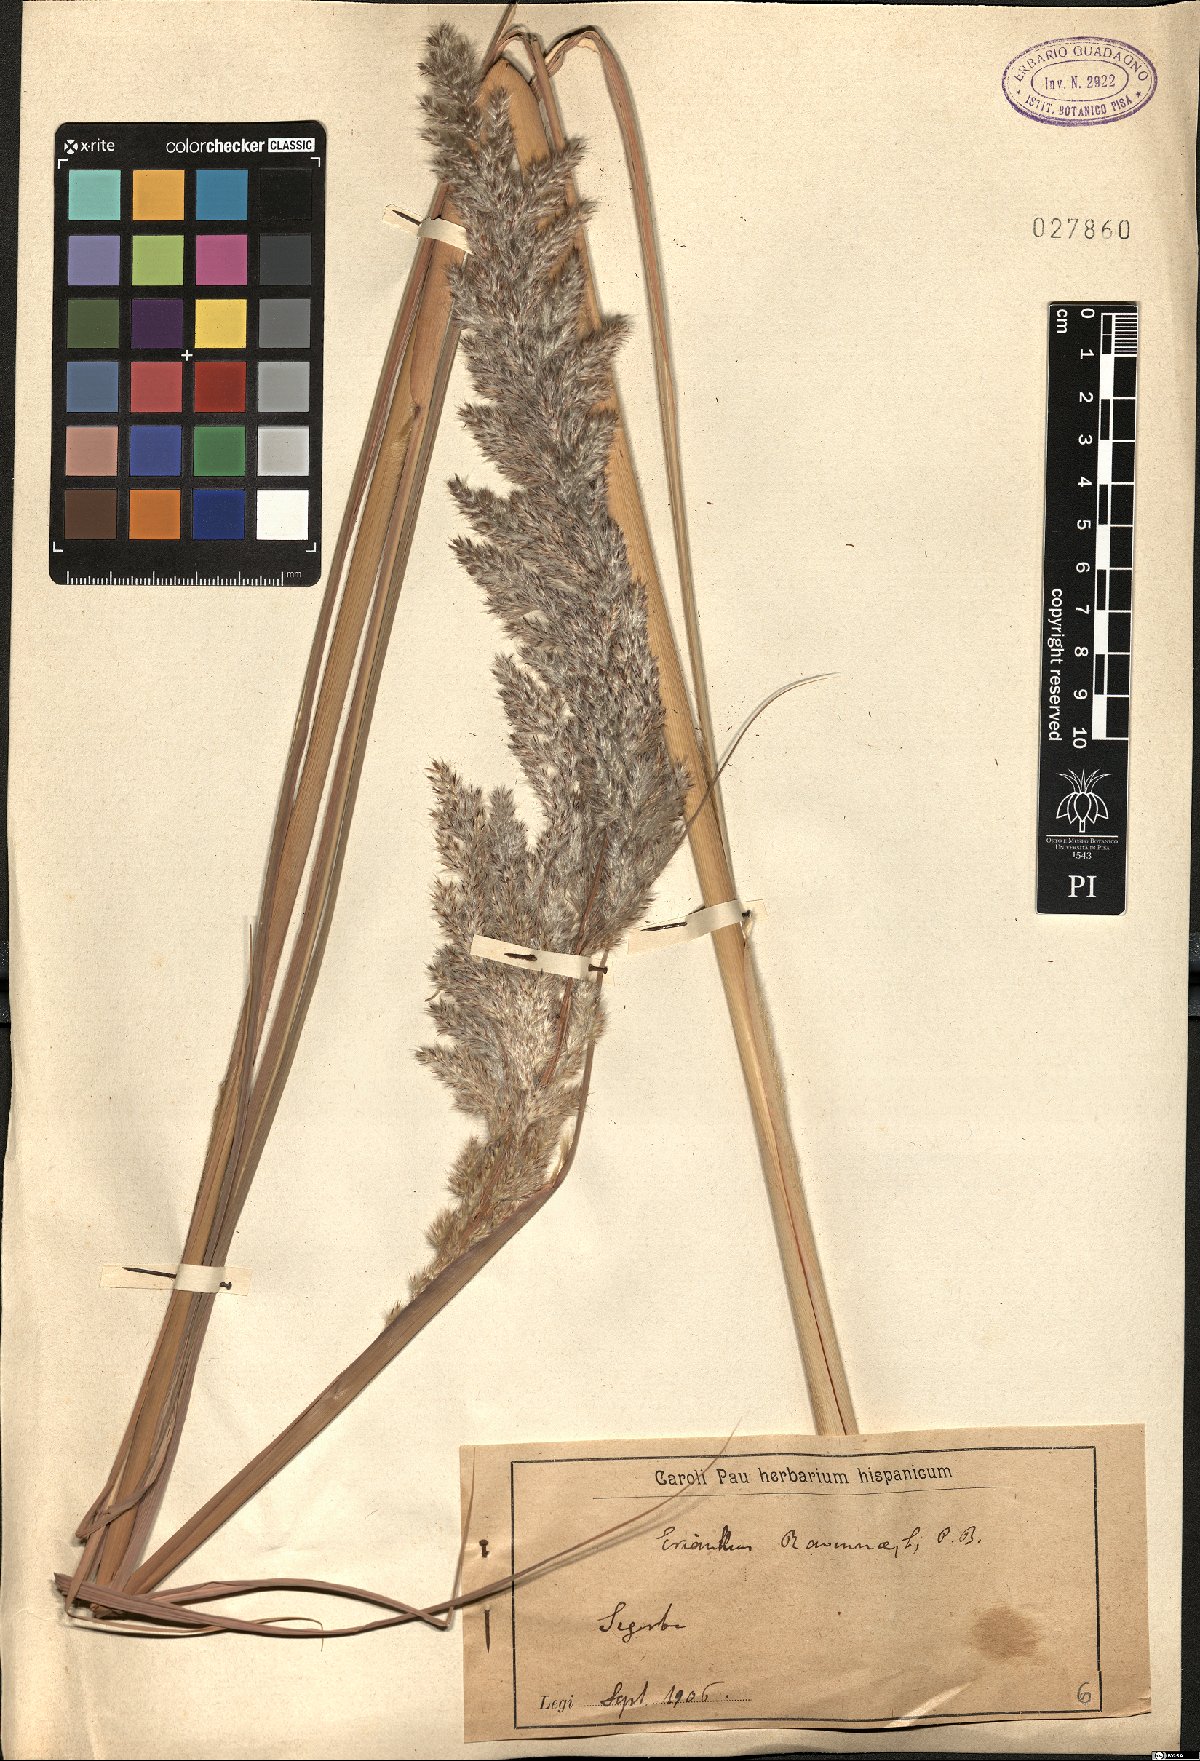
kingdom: Plantae
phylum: Tracheophyta
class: Liliopsida
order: Poales
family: Poaceae
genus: Tripidium
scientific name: Tripidium ravennae
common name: Ravenna grass
